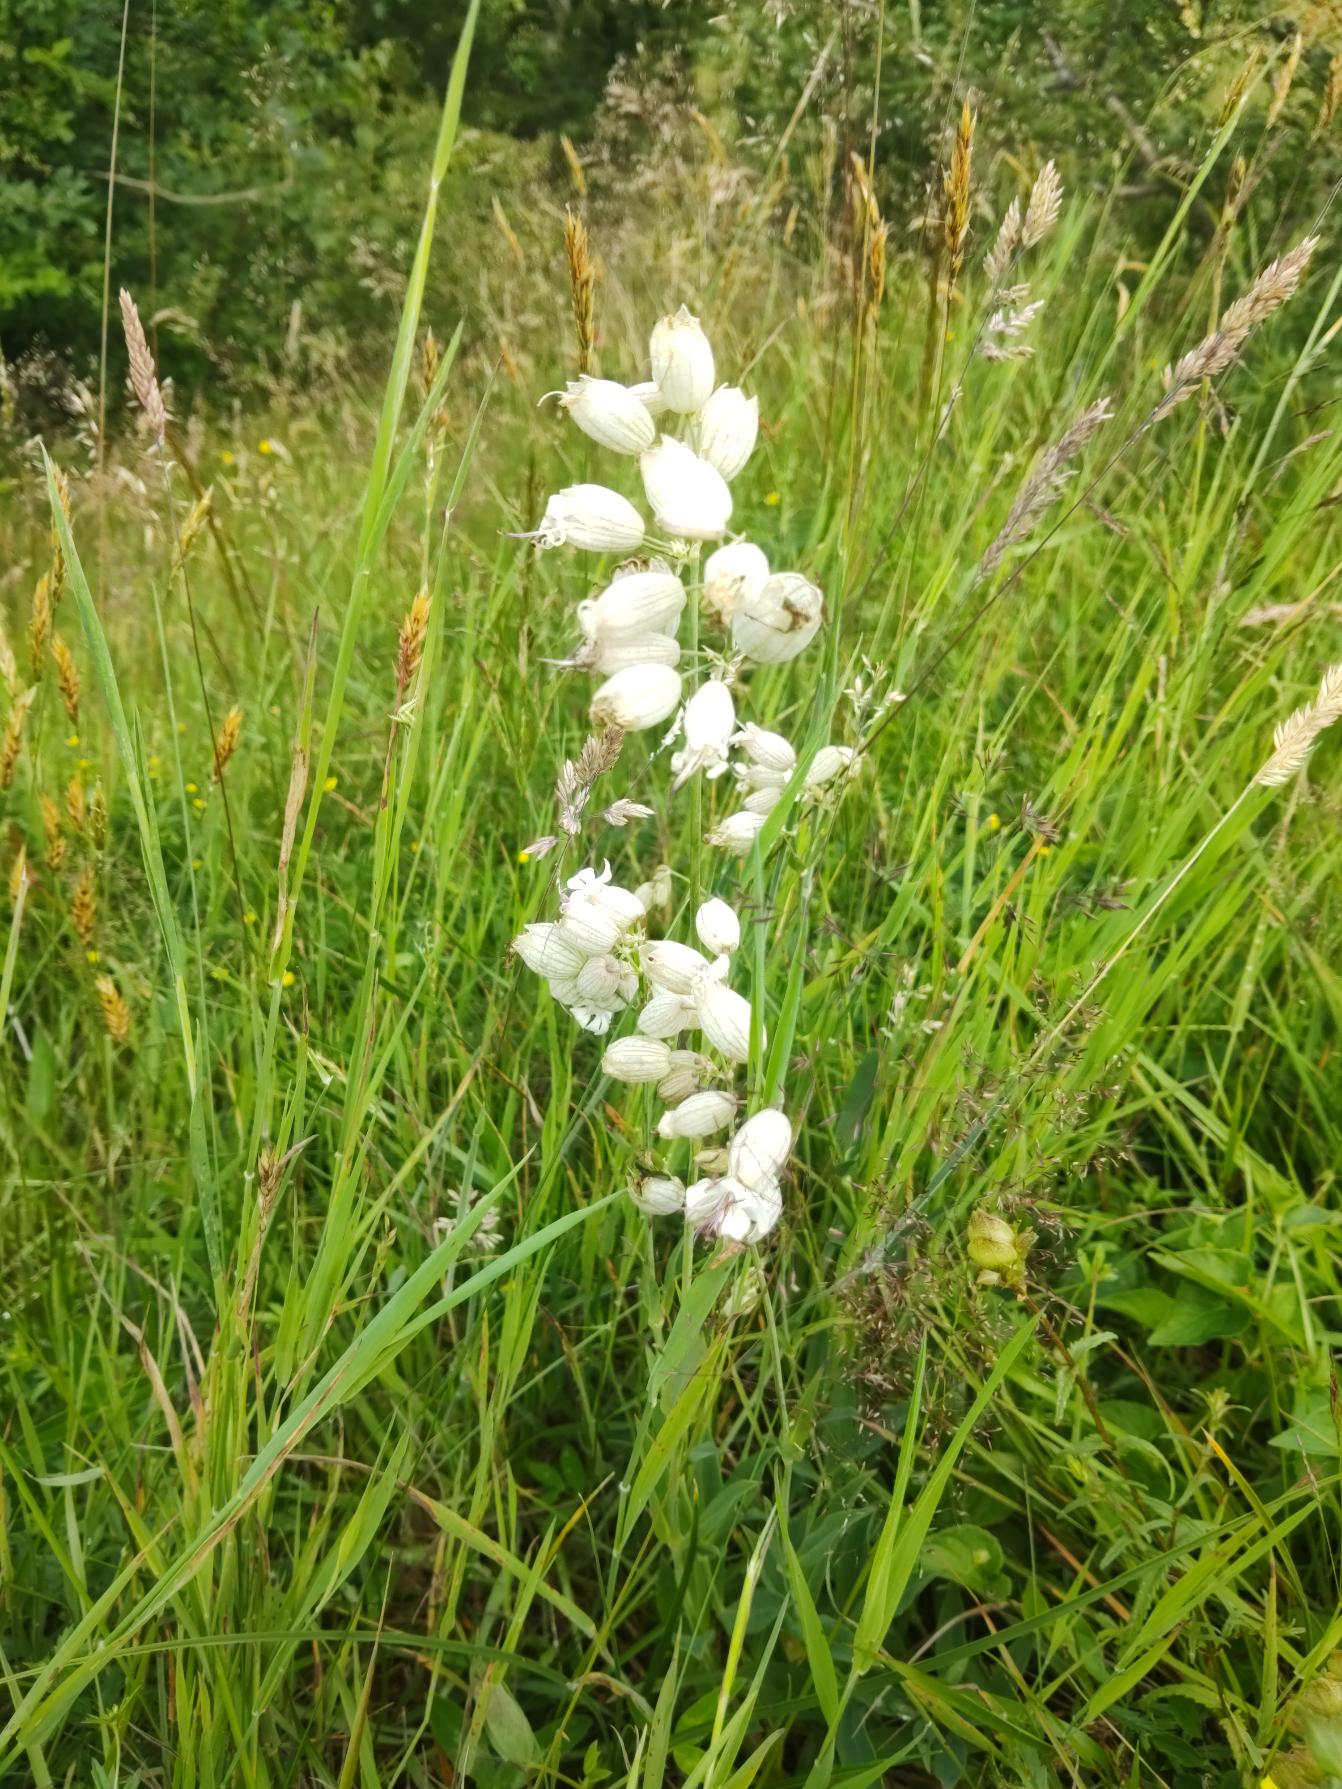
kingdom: Plantae
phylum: Tracheophyta
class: Magnoliopsida
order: Caryophyllales
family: Caryophyllaceae
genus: Silene
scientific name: Silene vulgaris
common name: Blæresmælde
